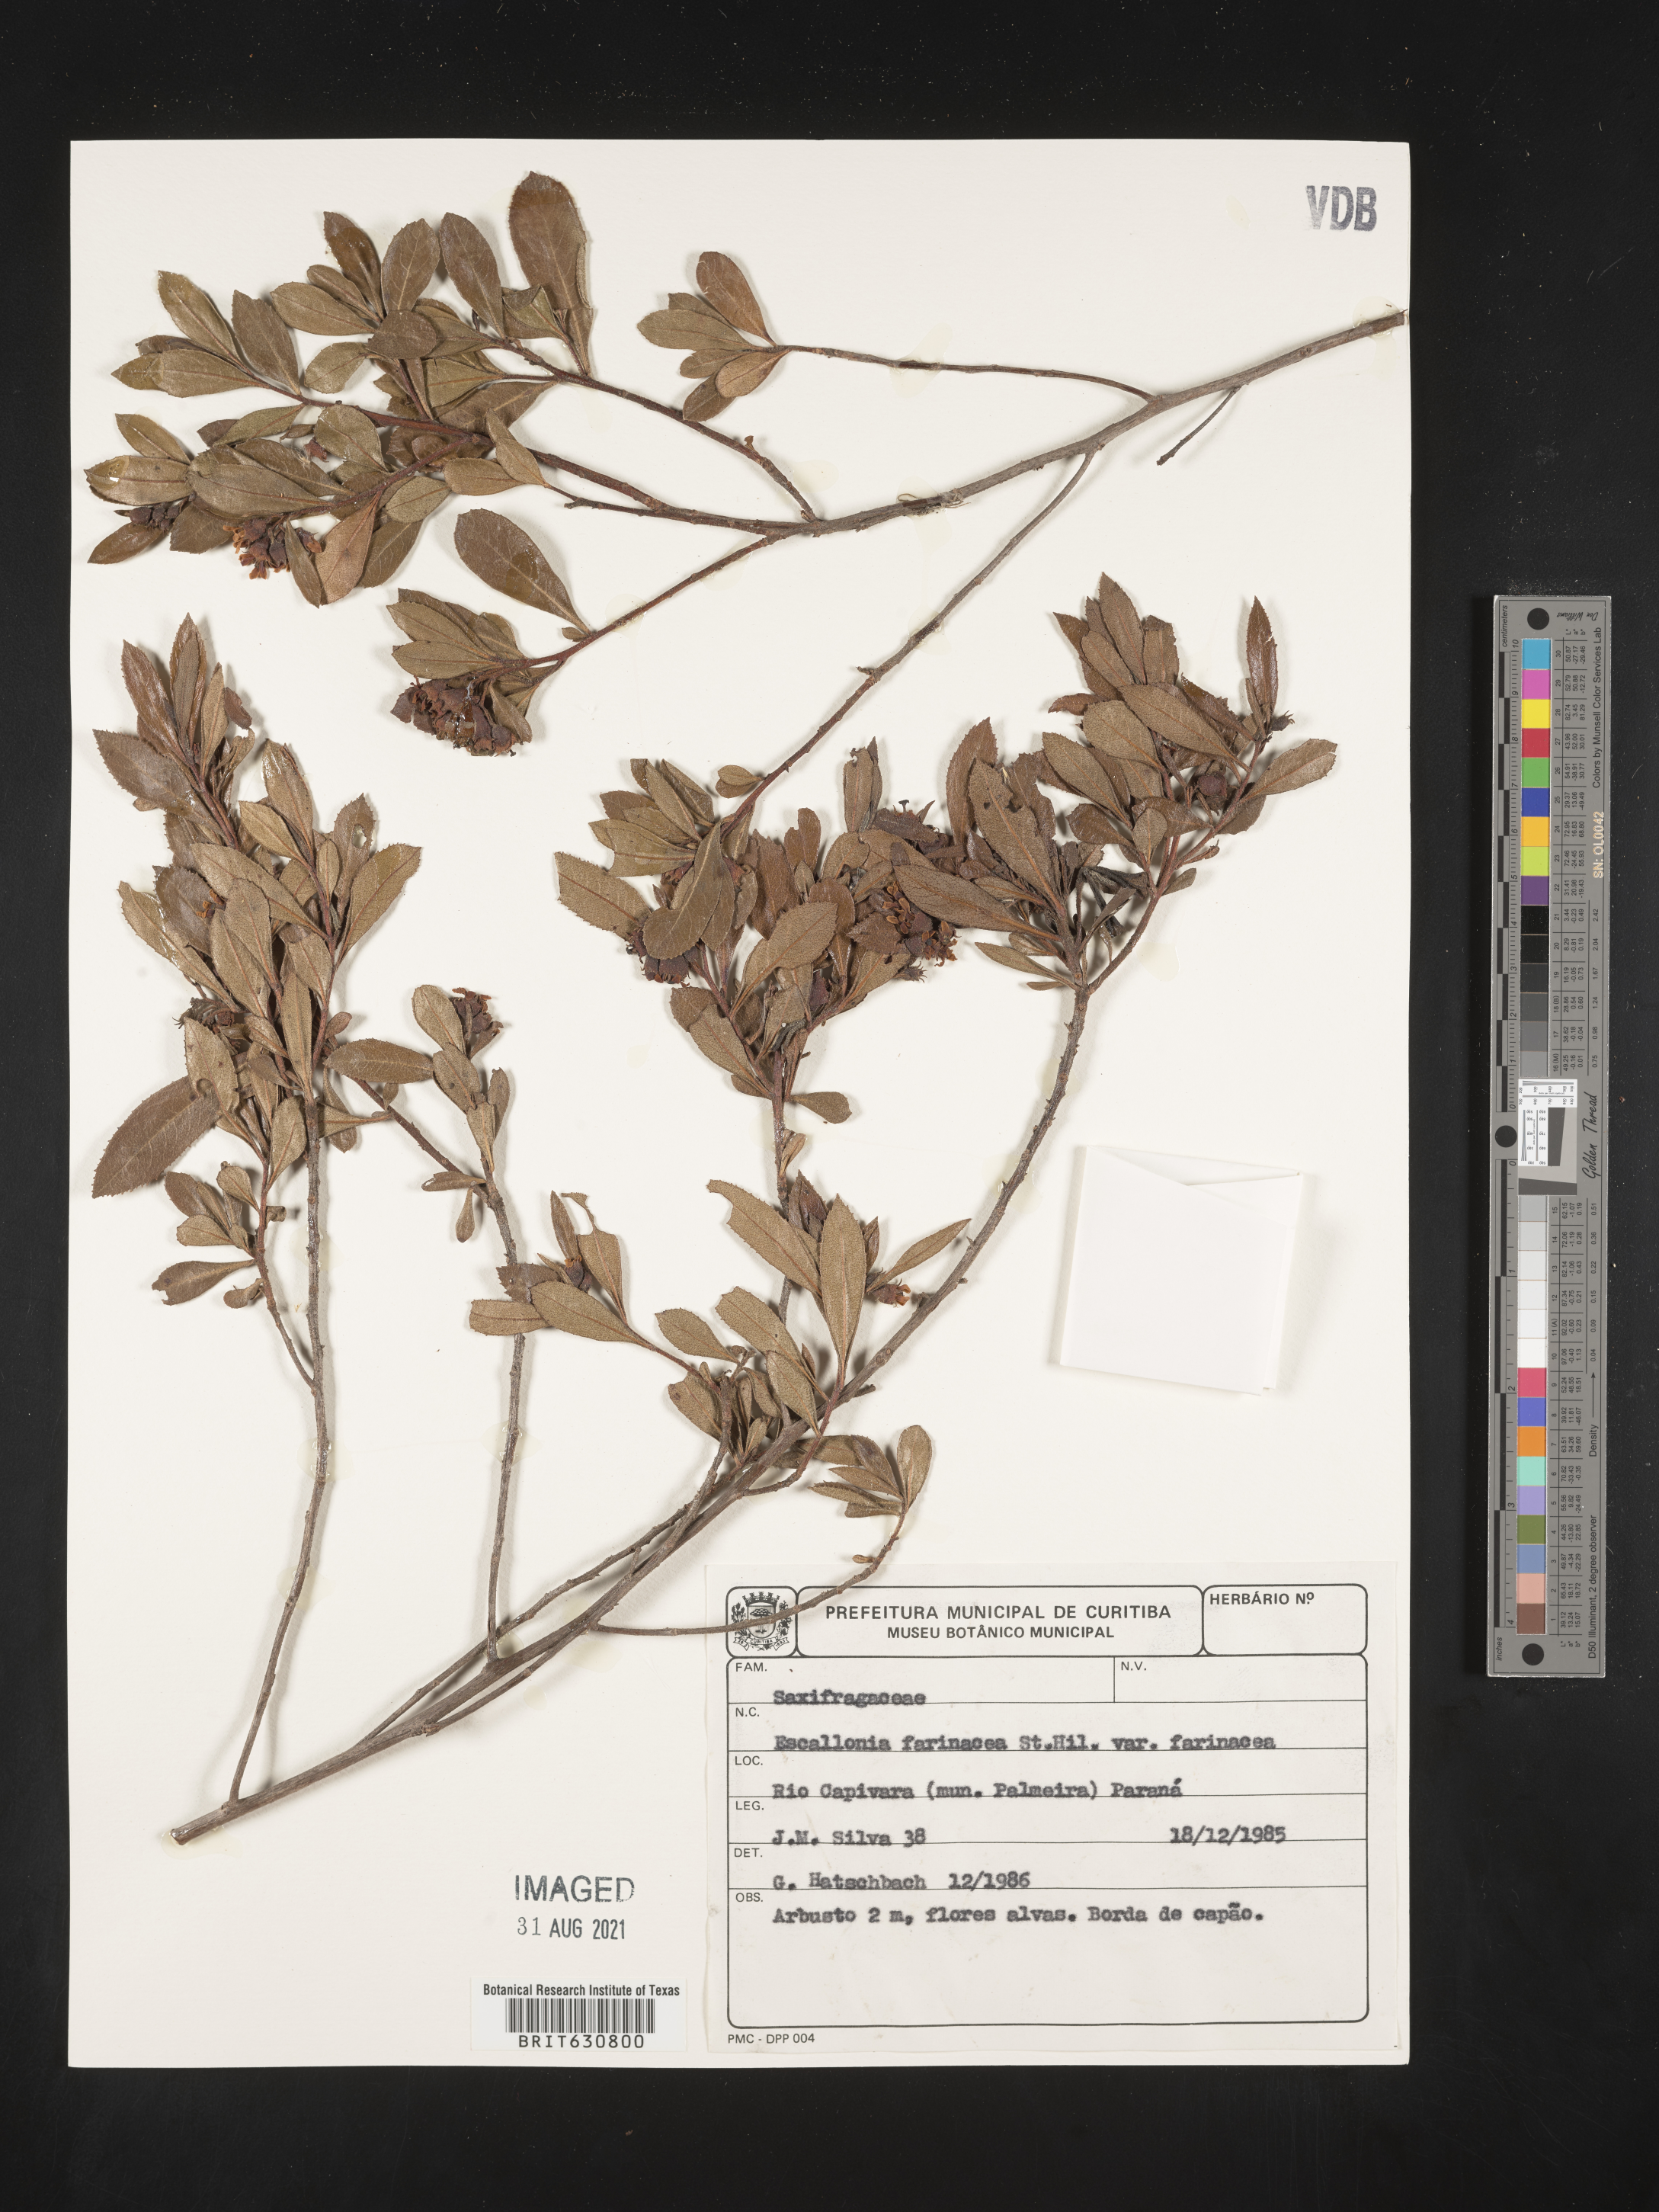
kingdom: Plantae
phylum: Tracheophyta
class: Magnoliopsida
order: Escalloniales
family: Escalloniaceae
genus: Escallonia
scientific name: Escallonia
